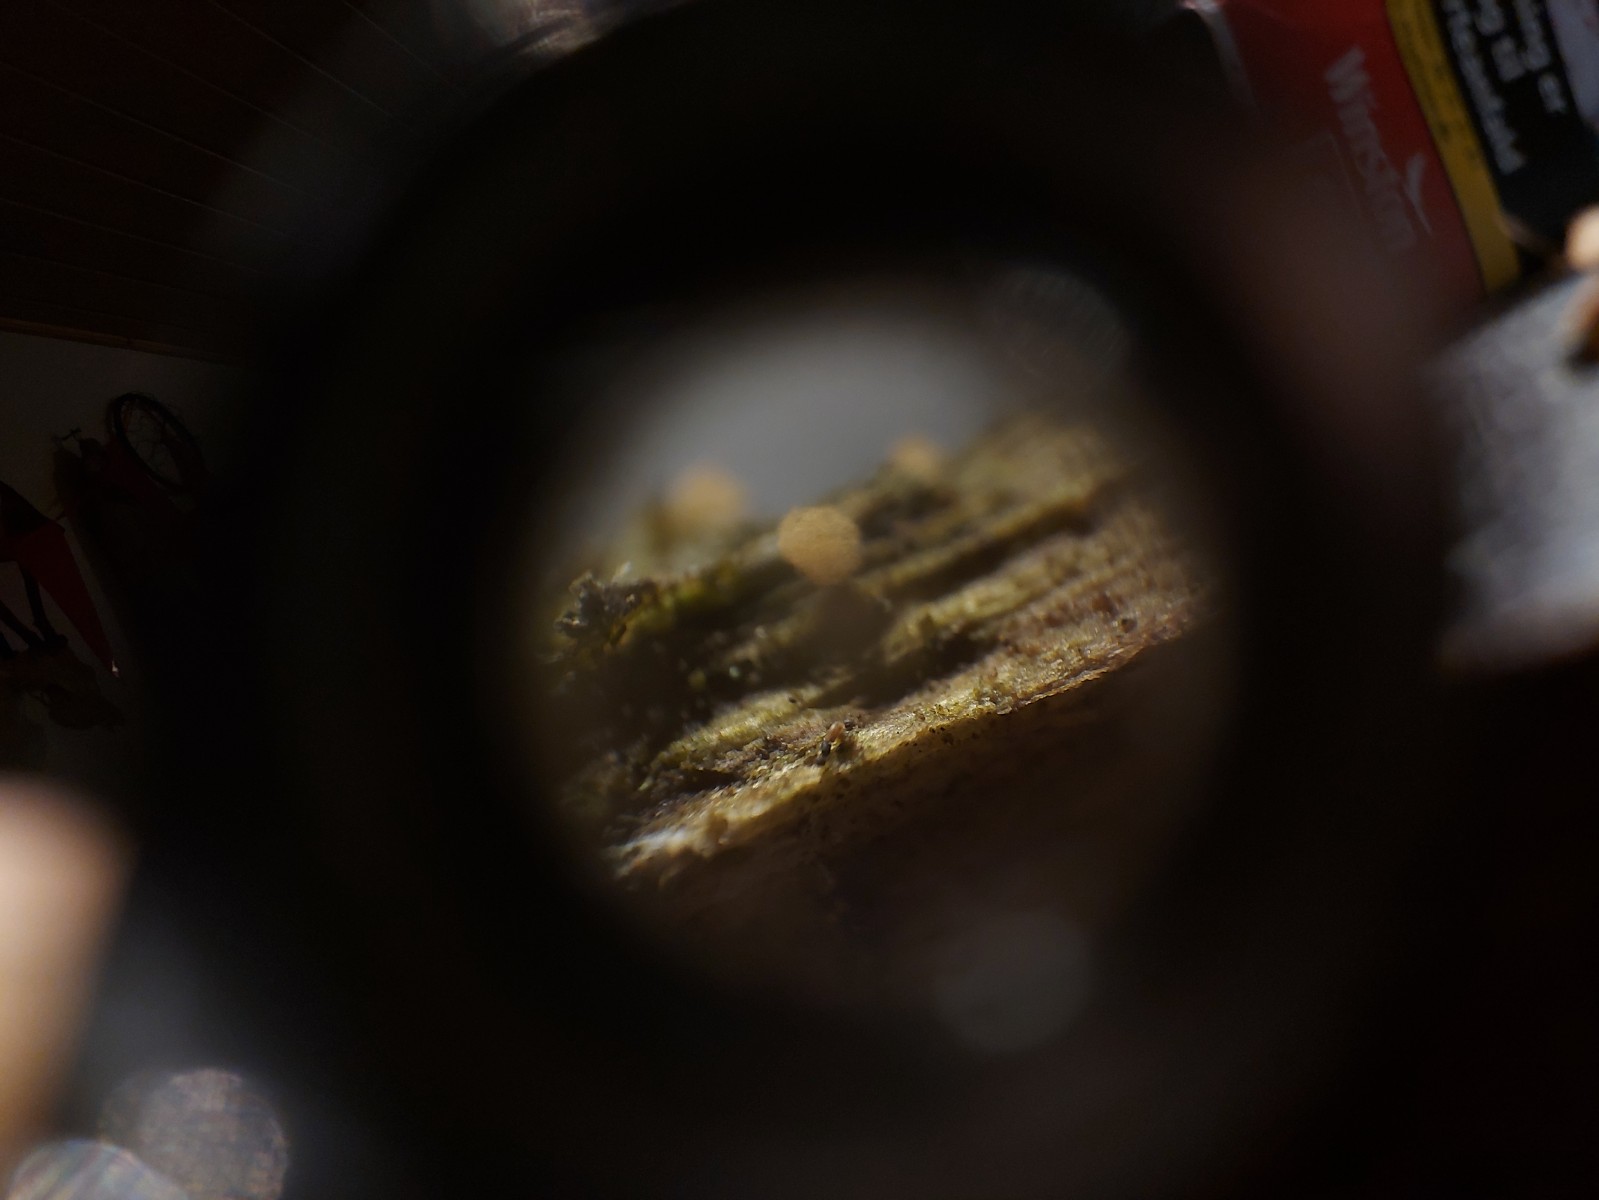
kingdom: Protozoa
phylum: Mycetozoa
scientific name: Mycetozoa
